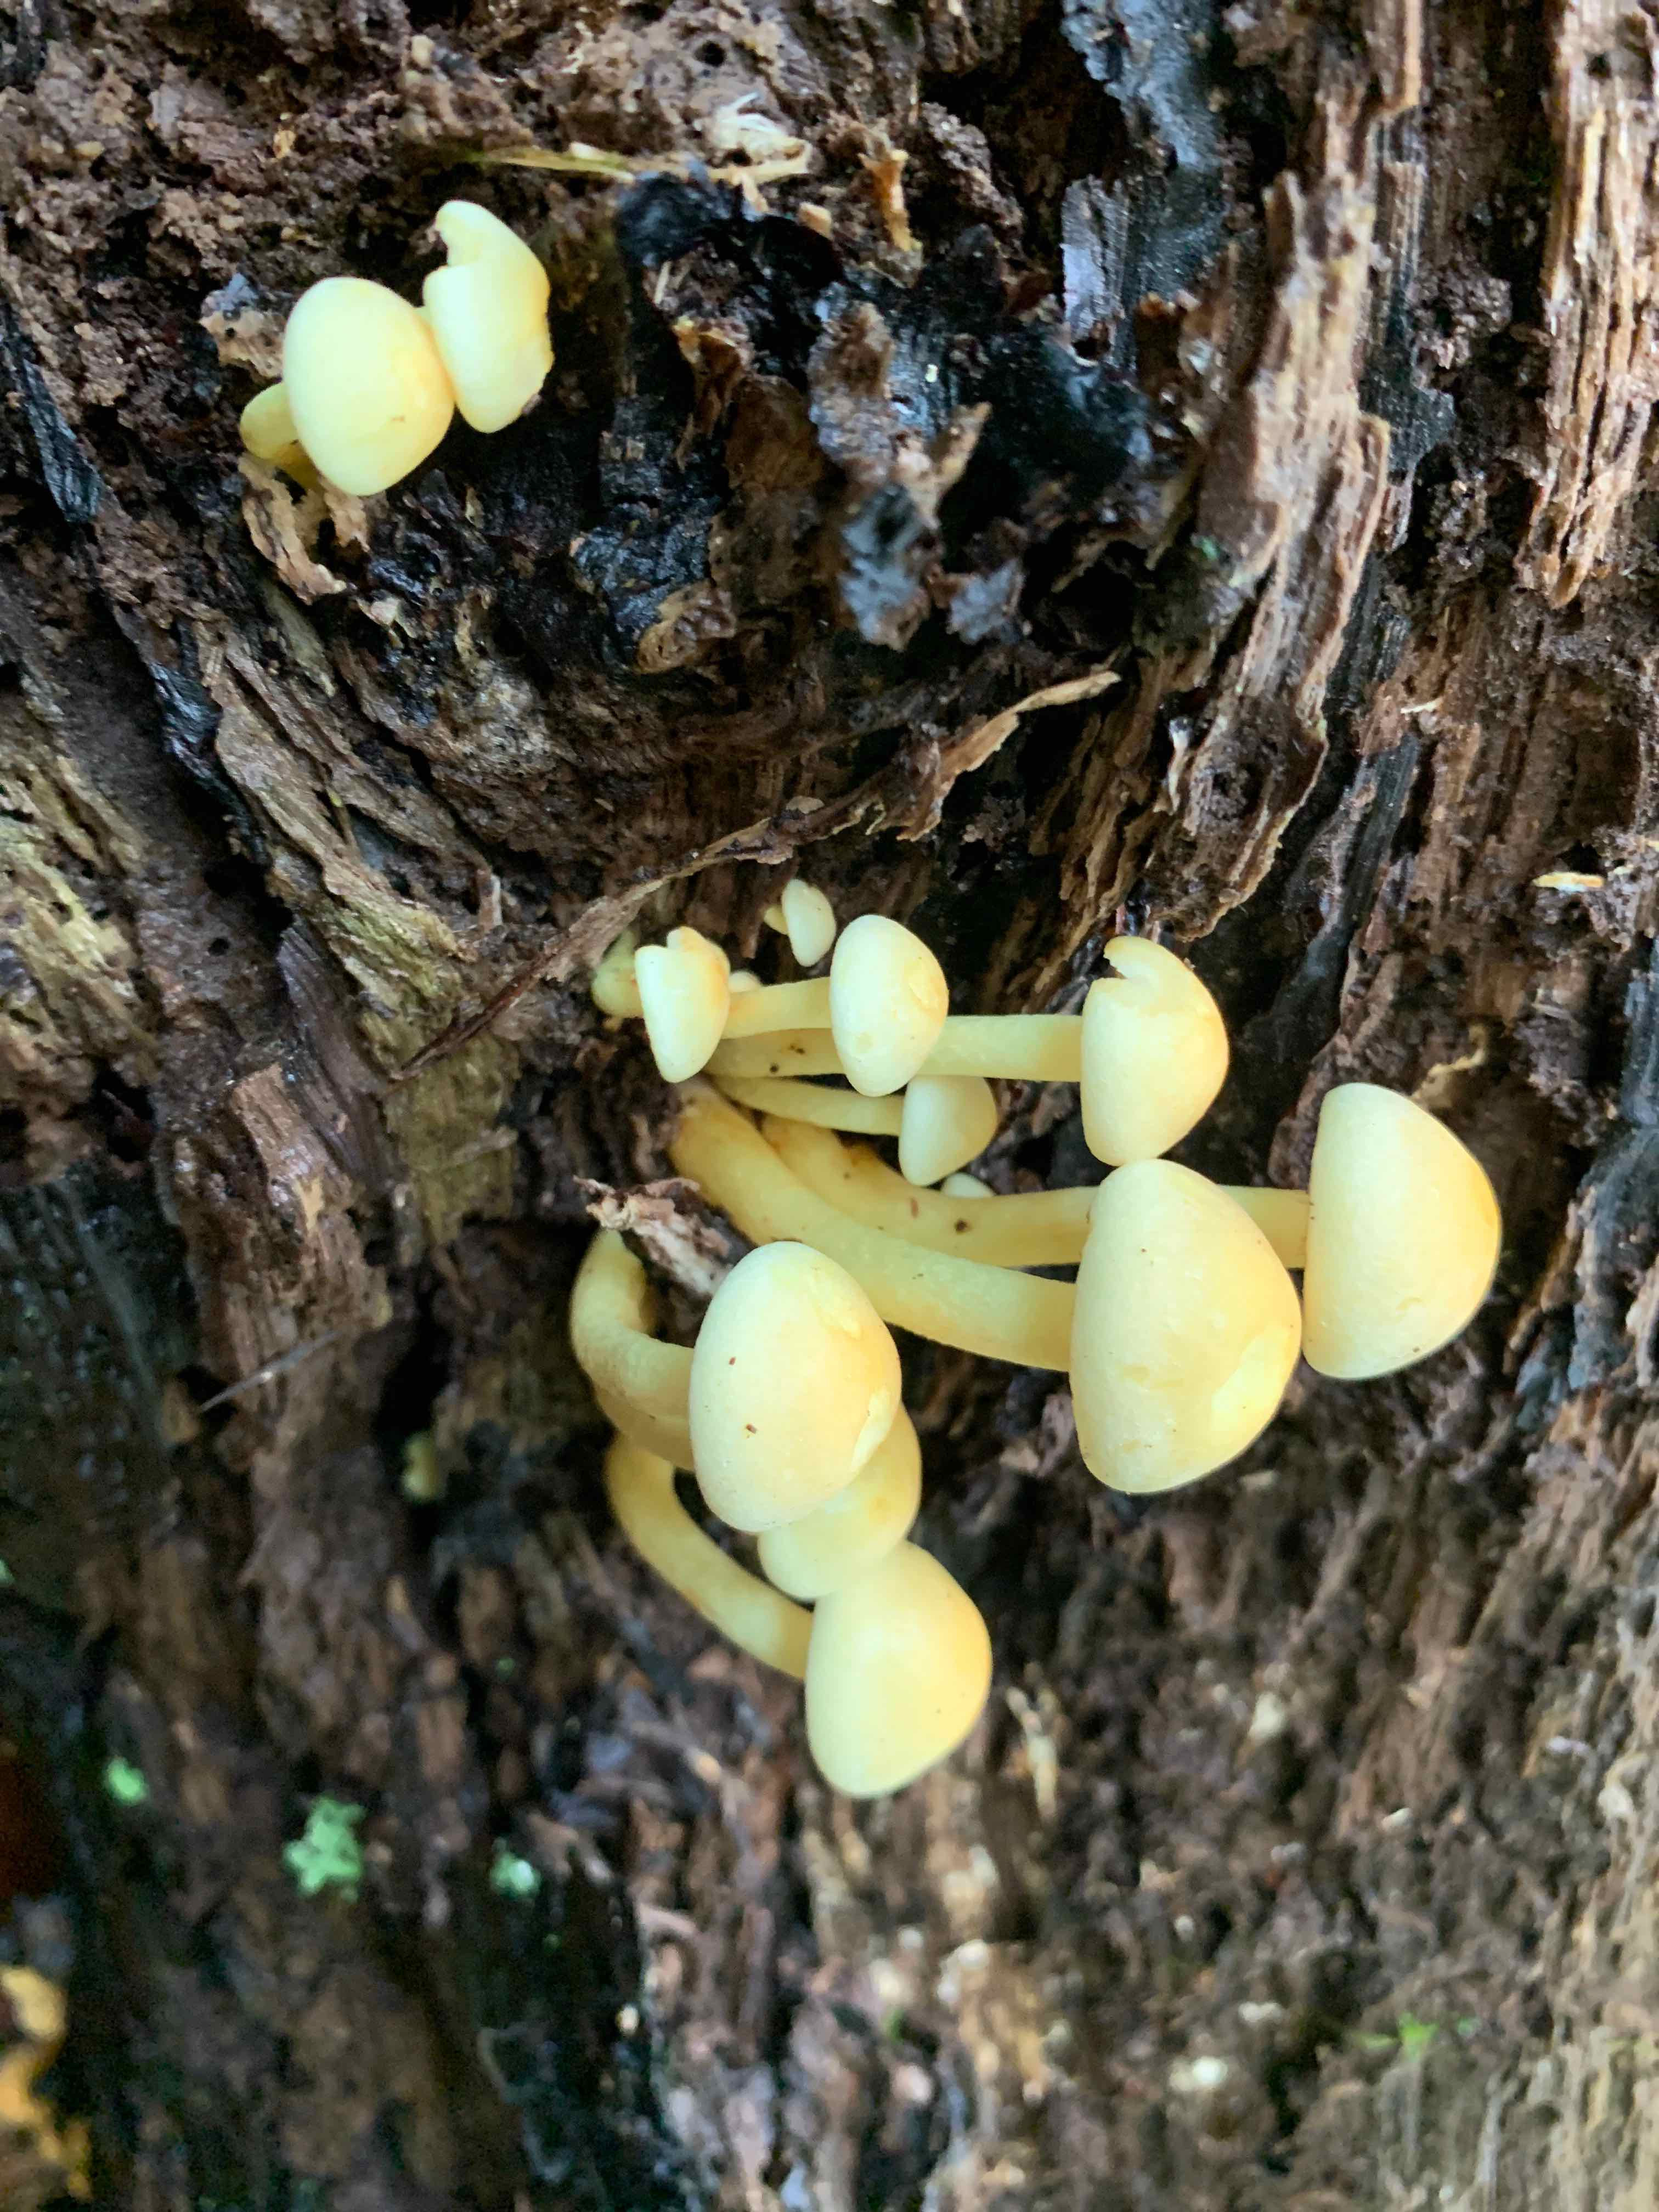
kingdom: Fungi
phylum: Basidiomycota
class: Agaricomycetes
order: Agaricales
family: Strophariaceae
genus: Hypholoma
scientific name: Hypholoma fasciculare
